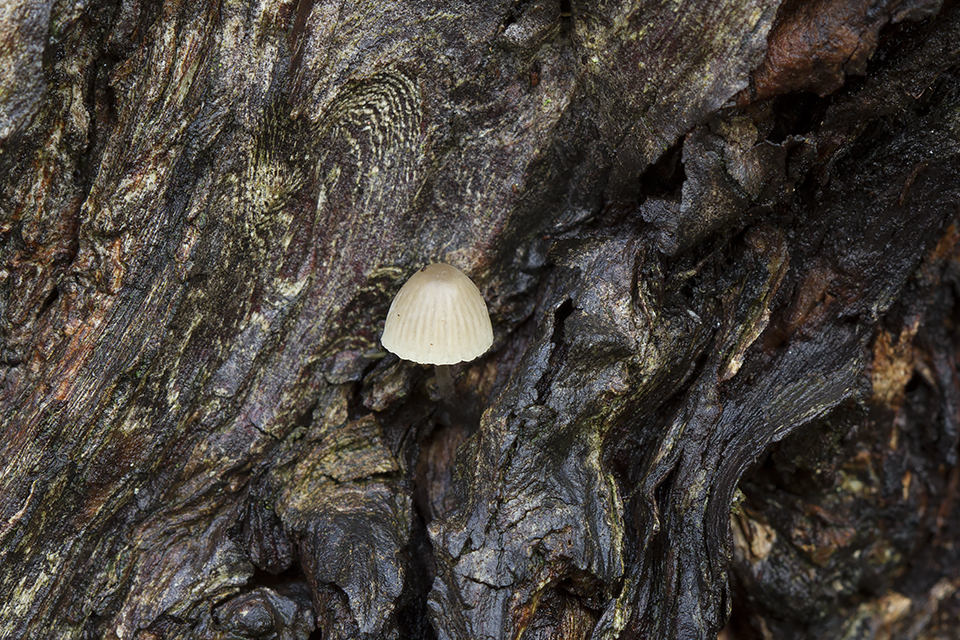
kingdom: Fungi
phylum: Basidiomycota
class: Agaricomycetes
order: Agaricales
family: Mycenaceae
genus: Mycena
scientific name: Mycena arcangeliana
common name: oliven-huesvamp
